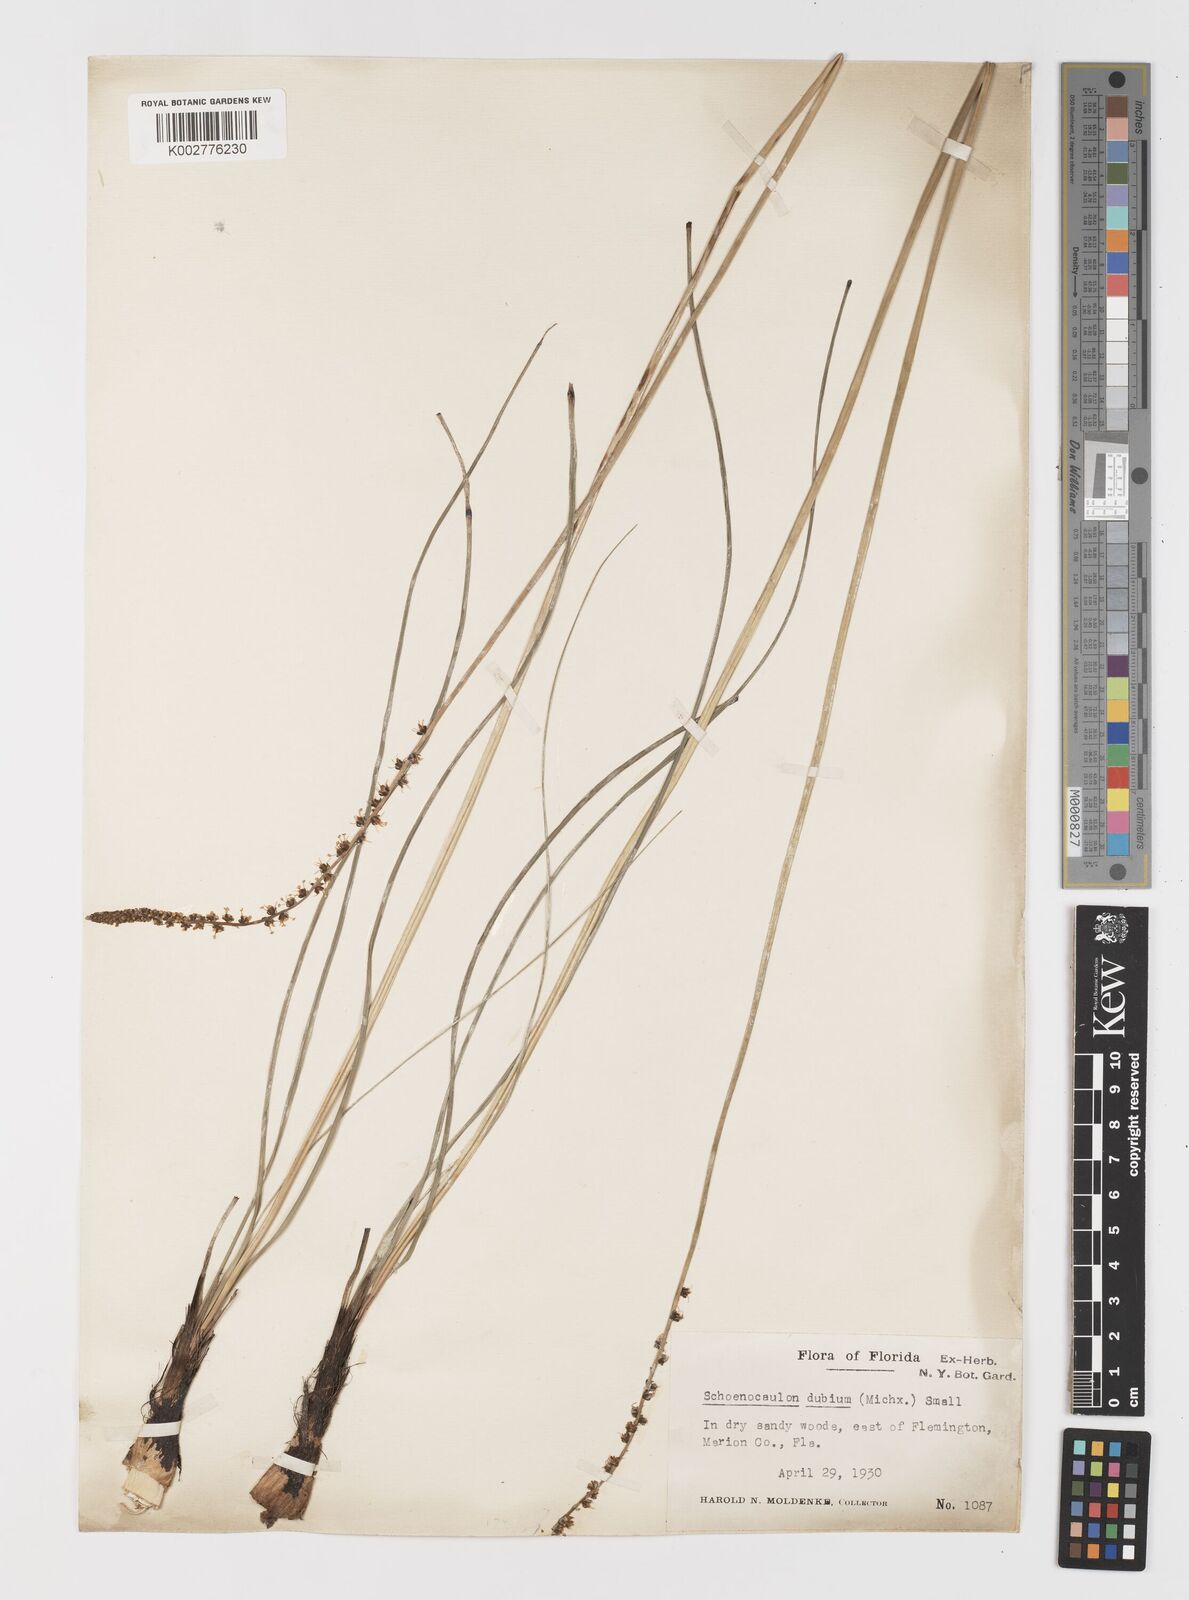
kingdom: Plantae
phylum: Tracheophyta
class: Liliopsida
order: Liliales
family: Melanthiaceae
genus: Schoenocaulon
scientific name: Schoenocaulon dubium
